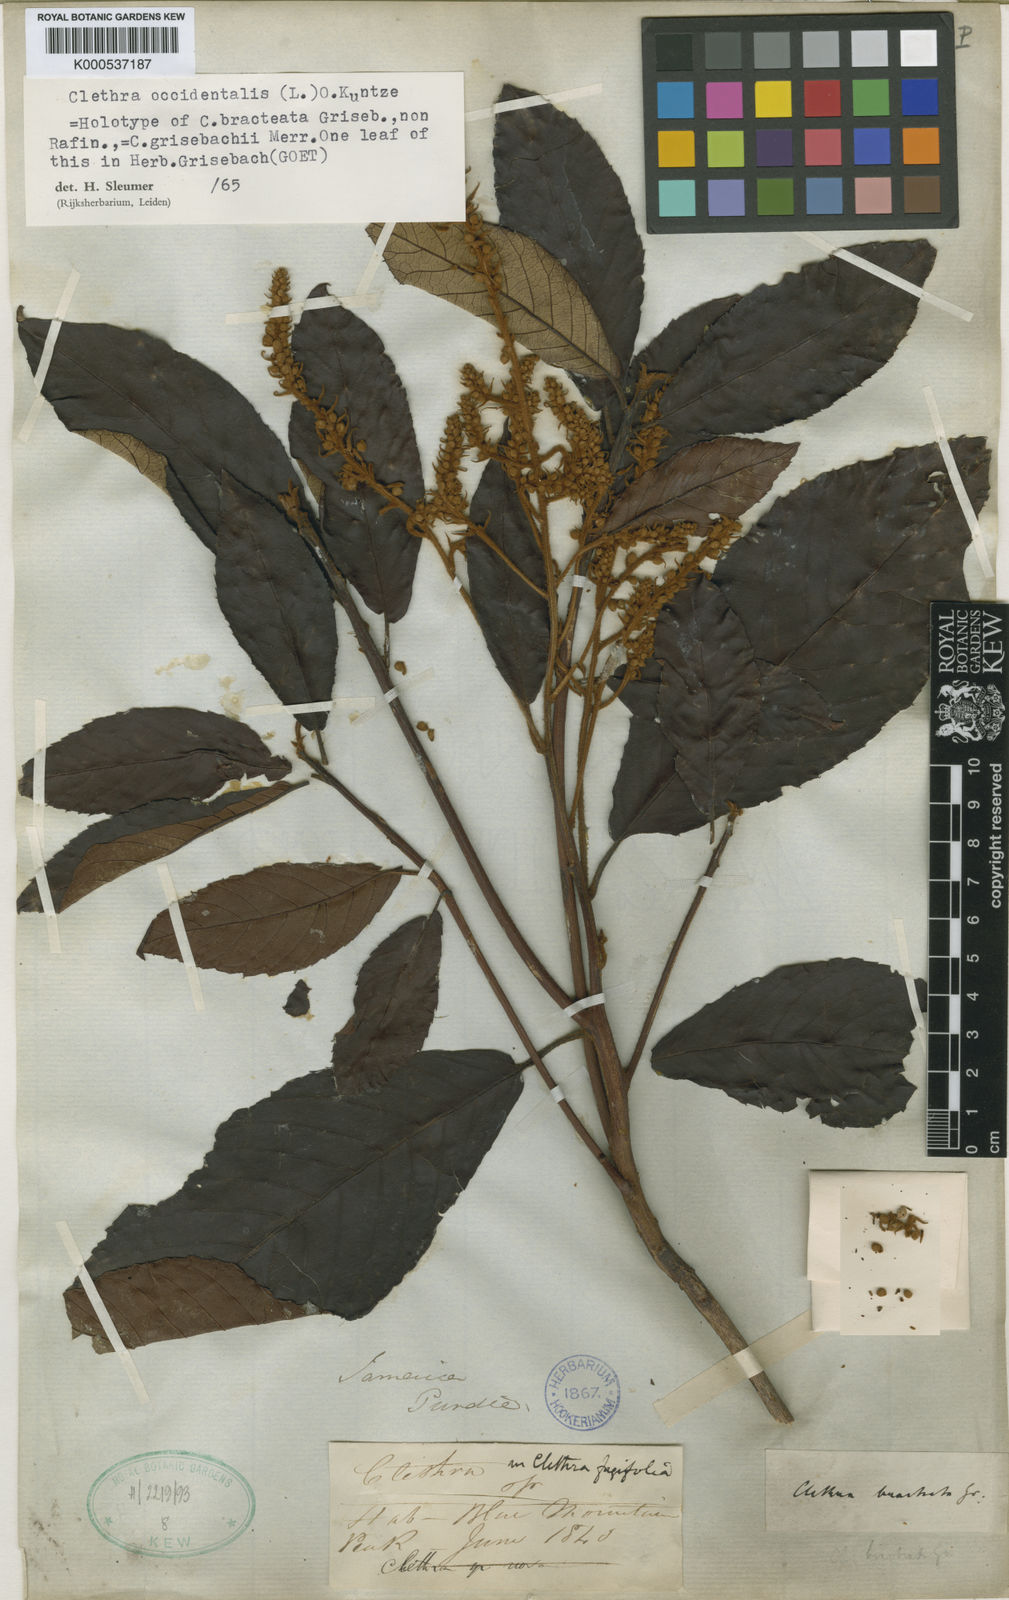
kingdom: Plantae
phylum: Tracheophyta
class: Magnoliopsida
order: Ericales
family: Clethraceae
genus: Clethra
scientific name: Clethra occidentalis
